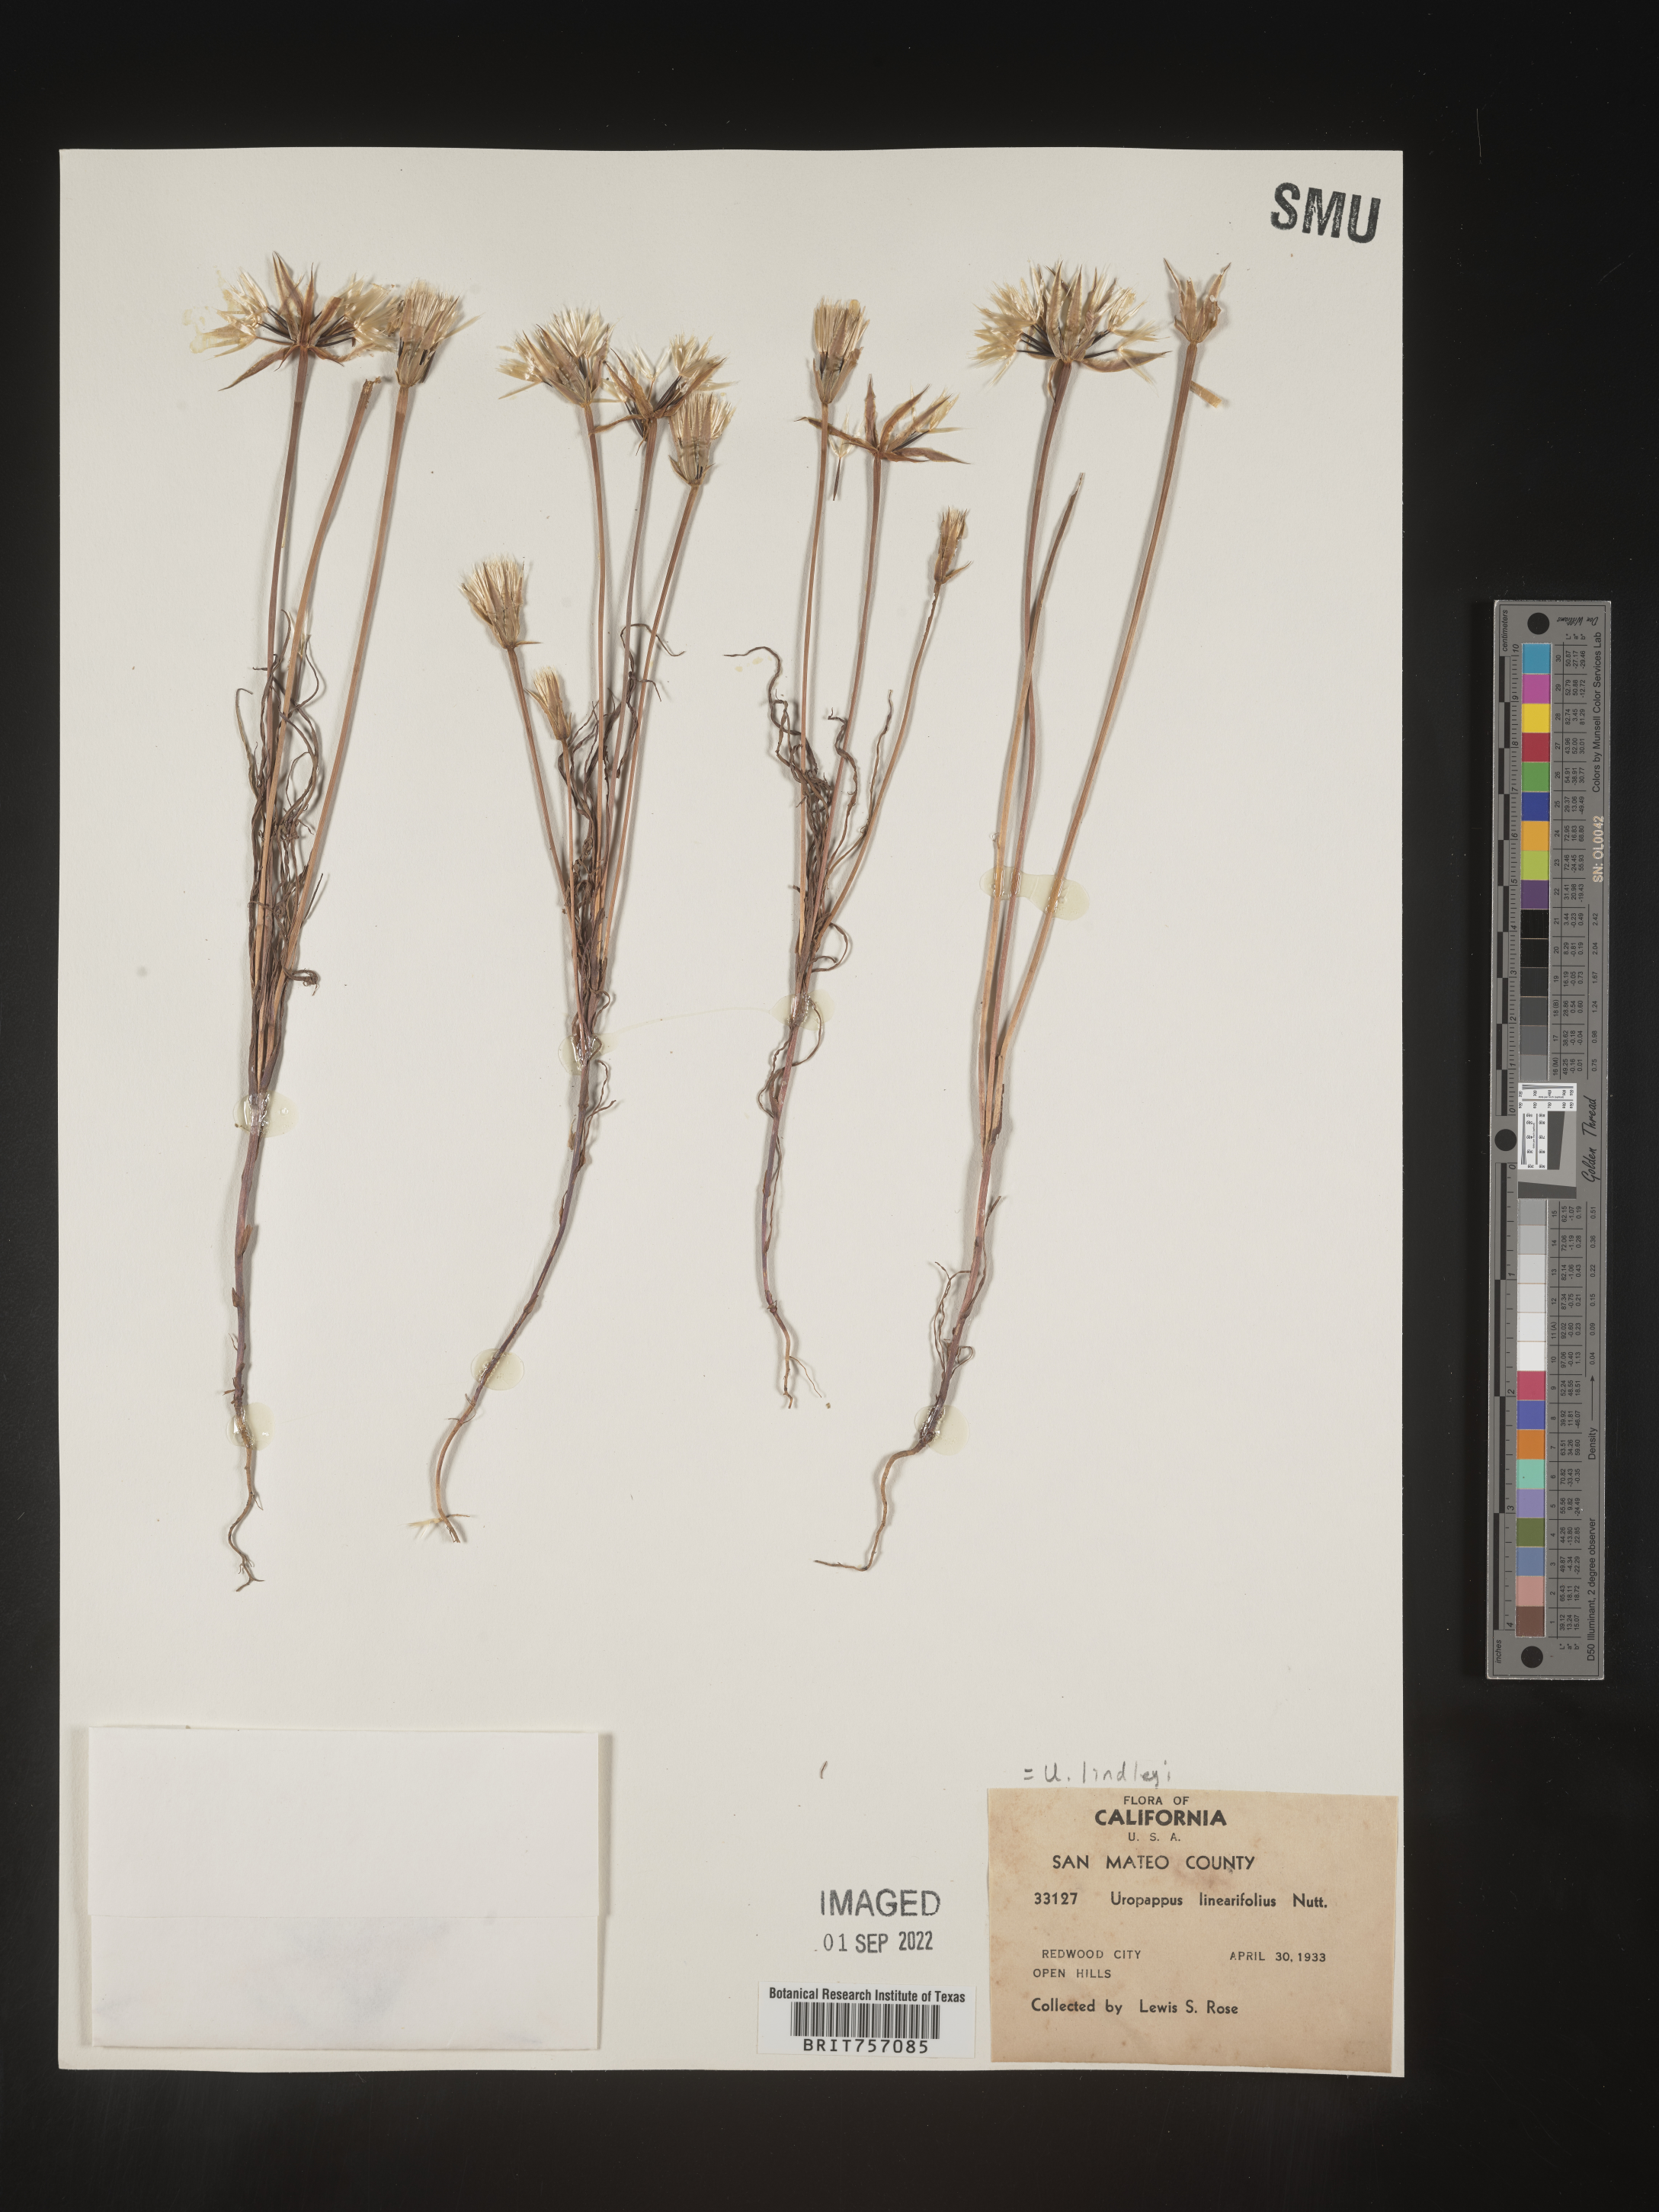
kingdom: Plantae
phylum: Tracheophyta
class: Magnoliopsida
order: Asterales
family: Asteraceae
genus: Microseris
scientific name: Microseris
